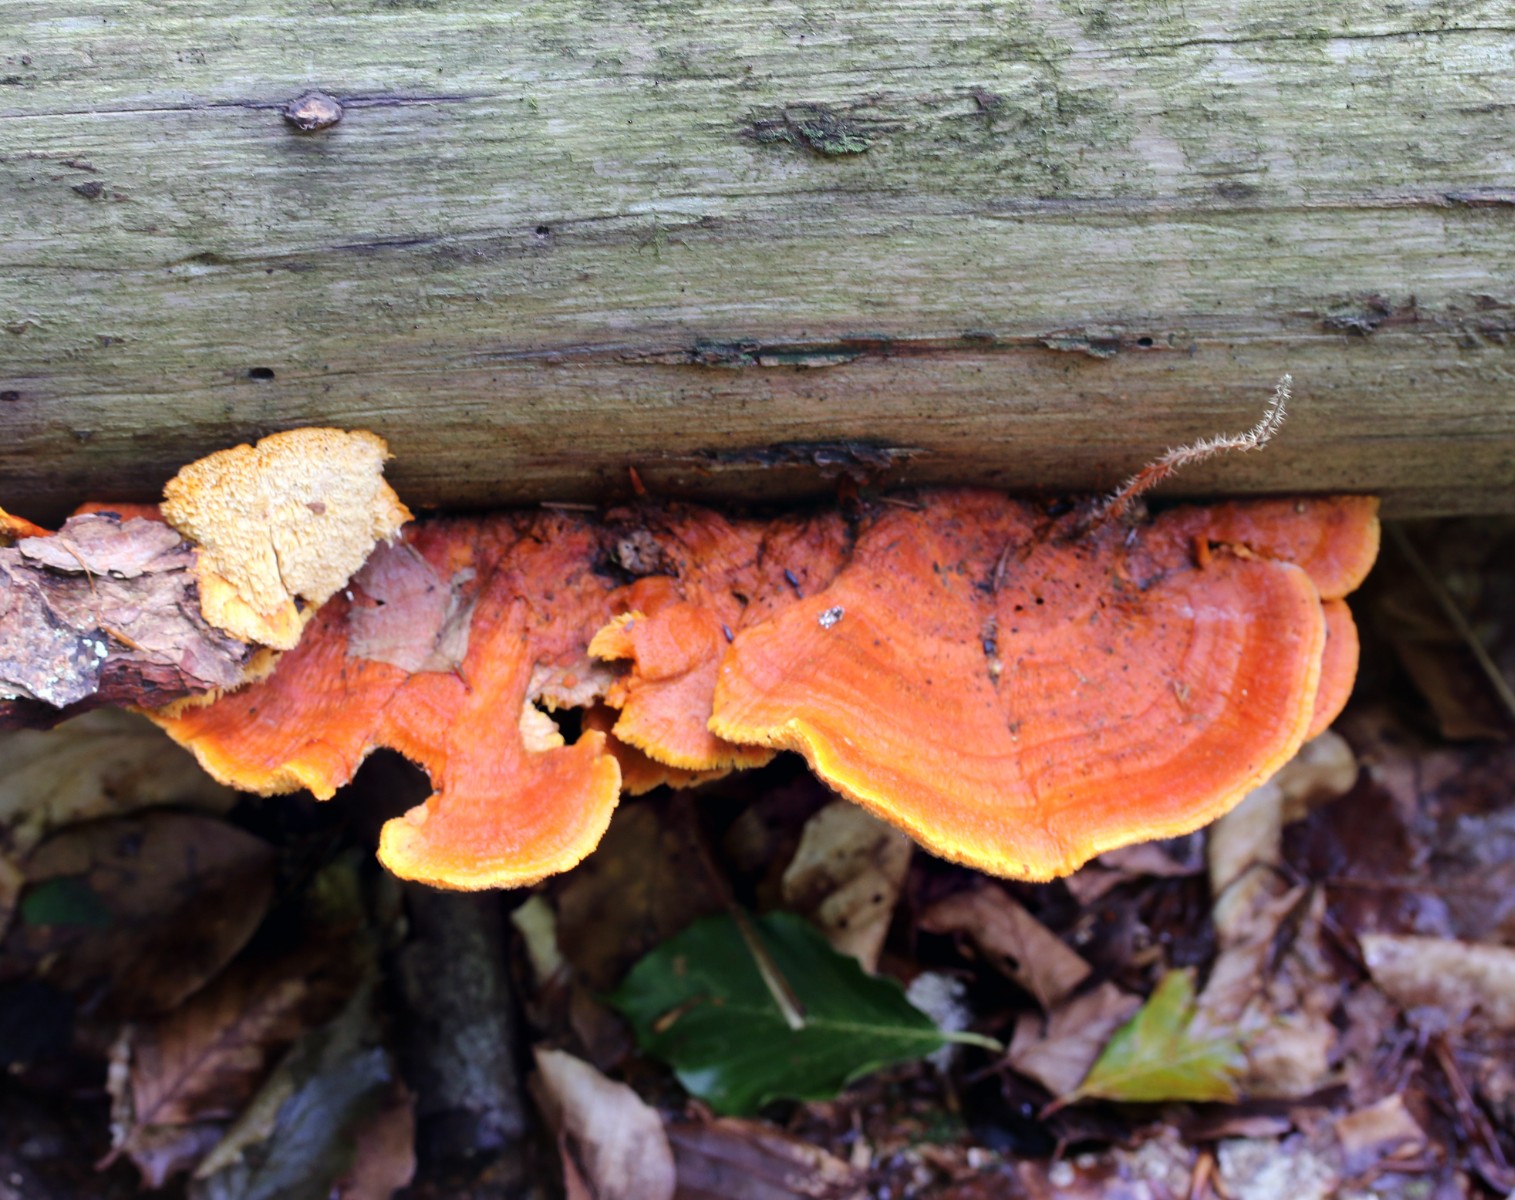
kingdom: Fungi
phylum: Basidiomycota
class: Agaricomycetes
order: Polyporales
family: Pycnoporellaceae
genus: Pycnoporellus
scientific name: Pycnoporellus fulgens
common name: flammeporesvamp
